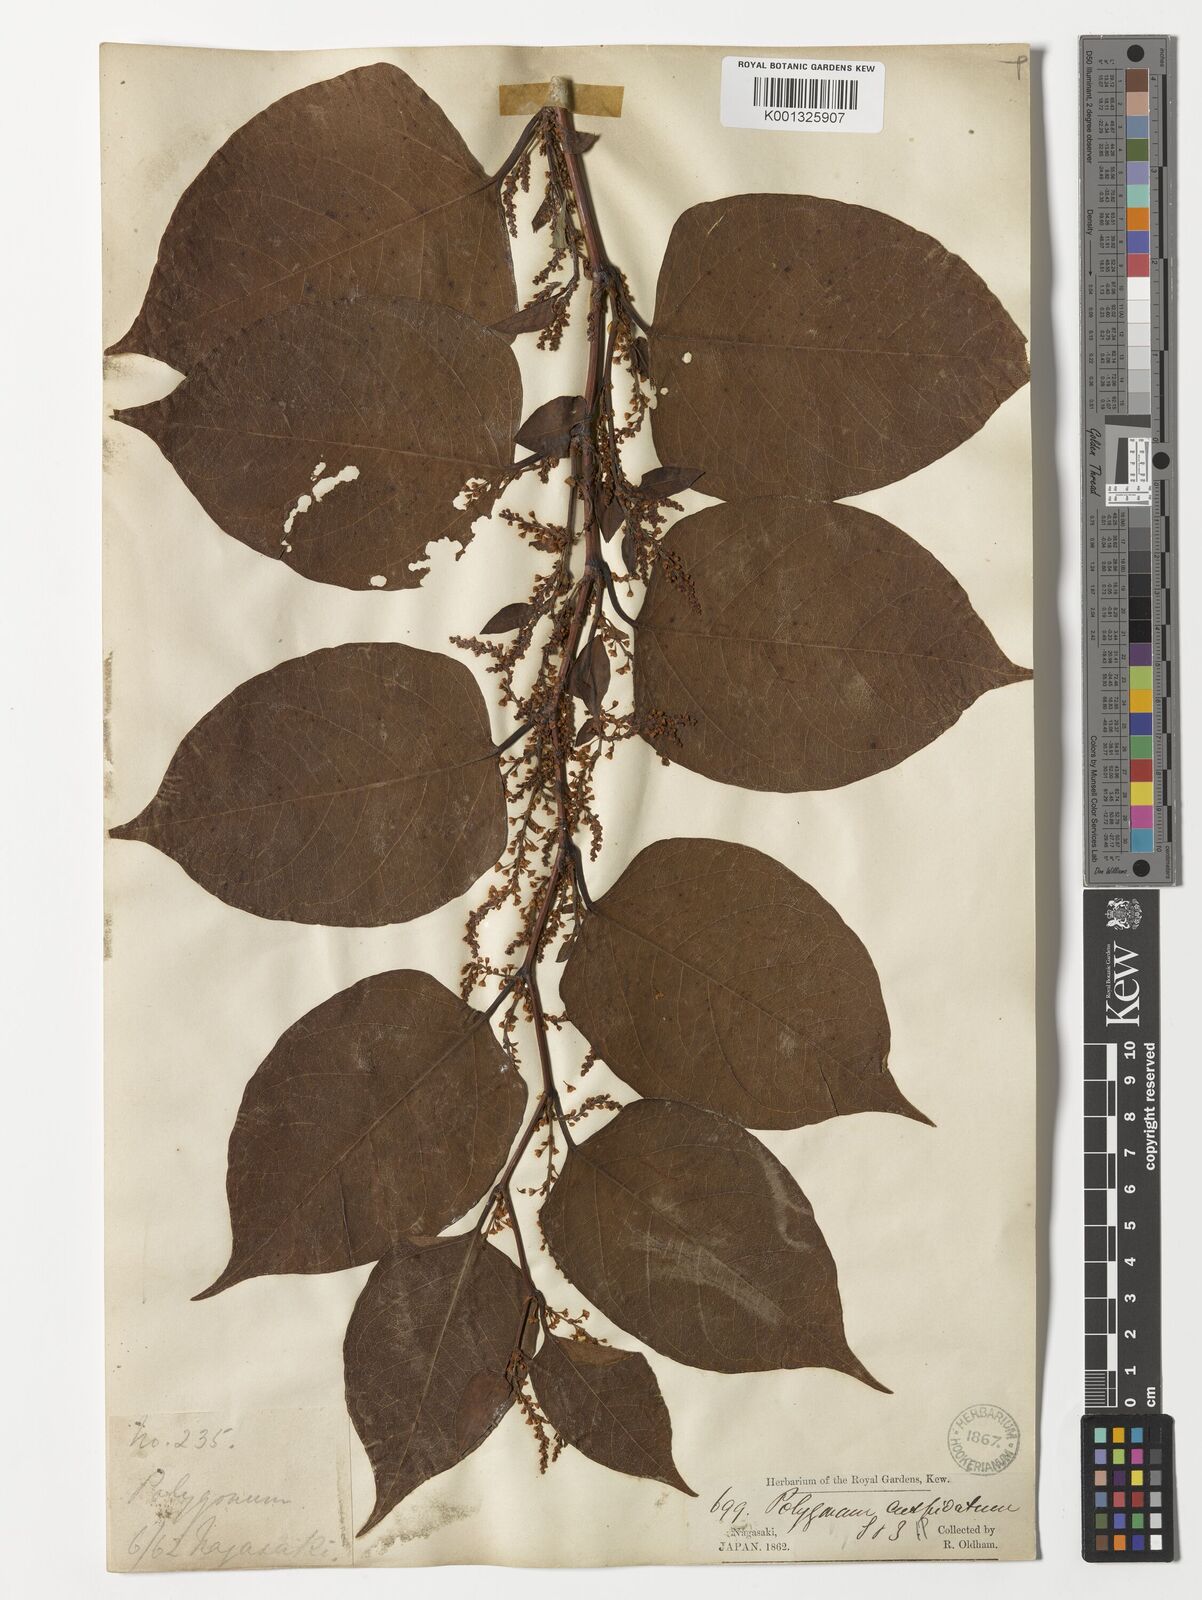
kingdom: Plantae
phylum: Tracheophyta
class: Magnoliopsida
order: Caryophyllales
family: Polygonaceae
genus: Reynoutria
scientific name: Reynoutria japonica
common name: Japanese knotweed
